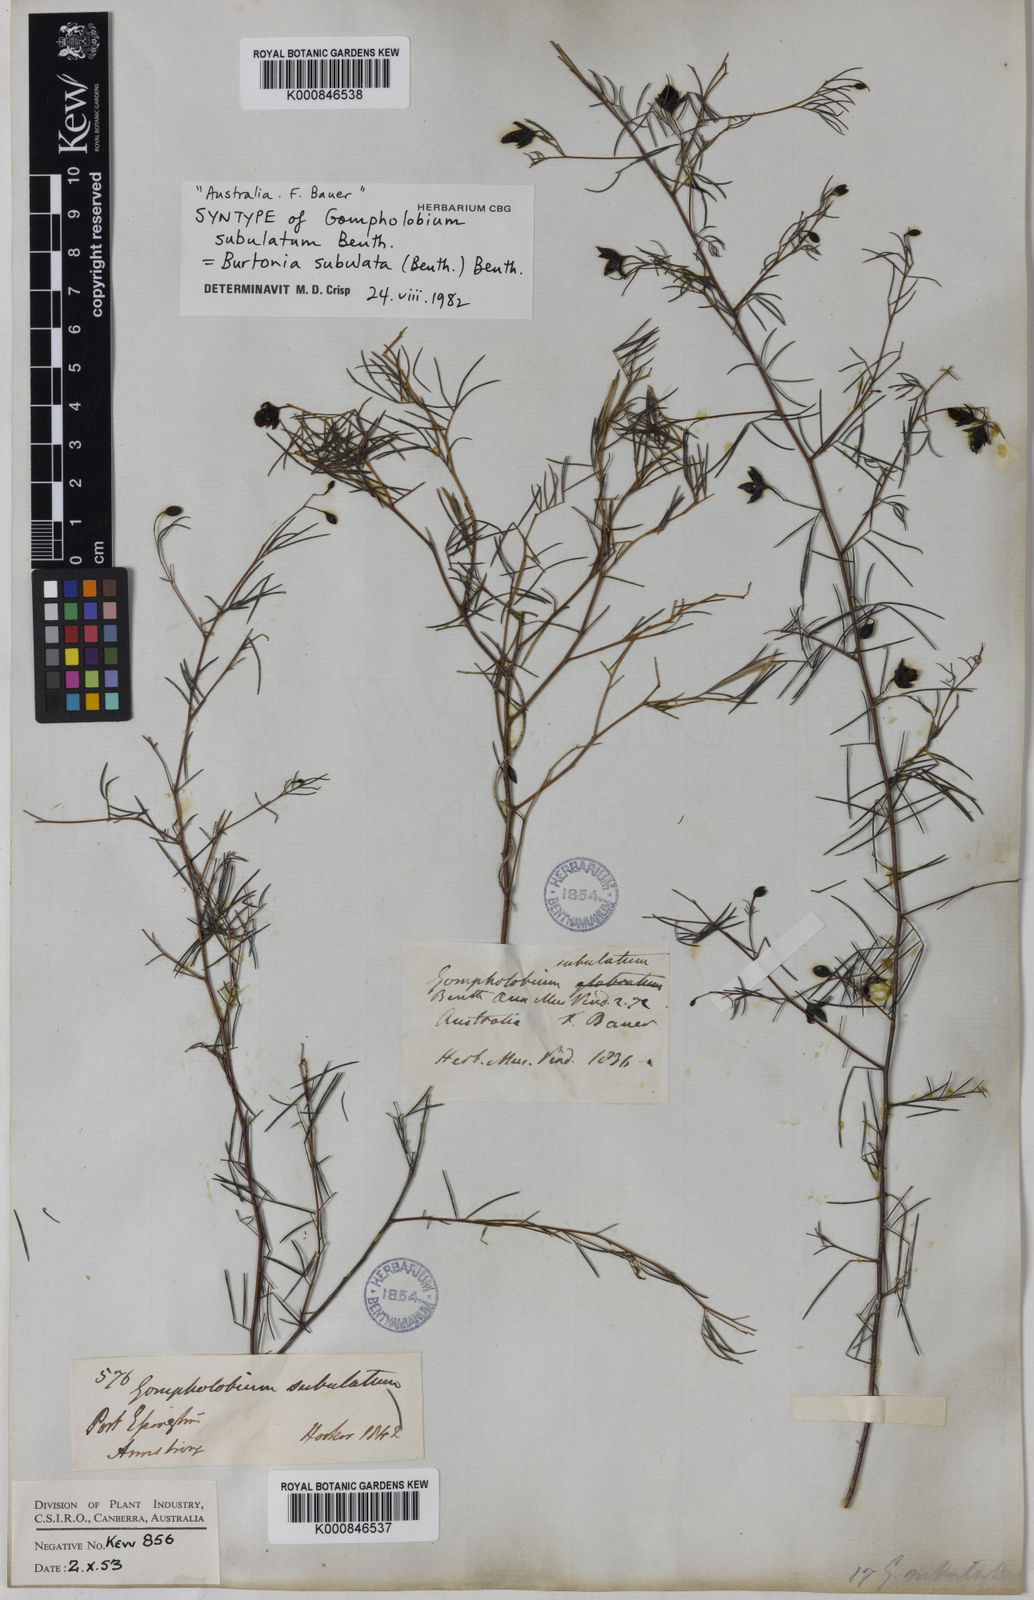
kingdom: Plantae
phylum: Tracheophyta
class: Magnoliopsida
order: Fabales
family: Fabaceae
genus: Gompholobium
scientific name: Gompholobium subulatum
